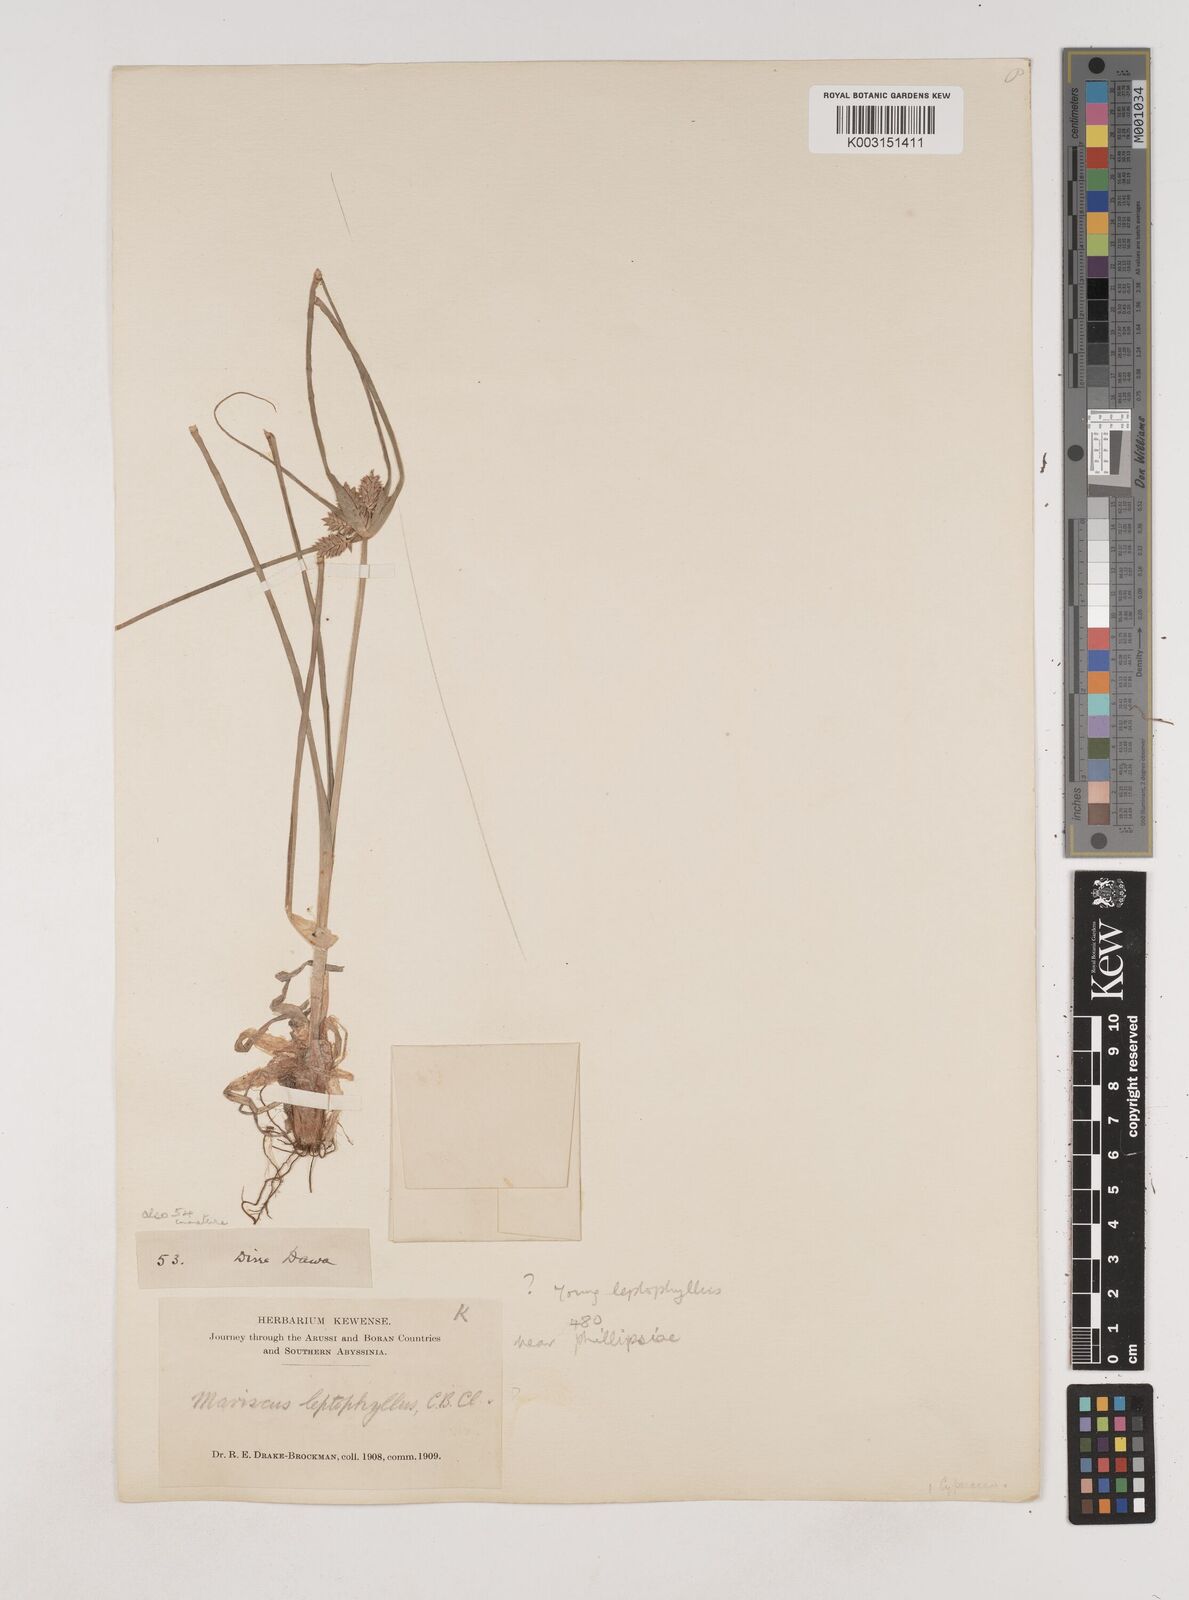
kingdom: Plantae
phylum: Tracheophyta
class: Liliopsida
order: Poales
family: Cyperaceae
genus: Cyperus
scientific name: Cyperus amauropus
